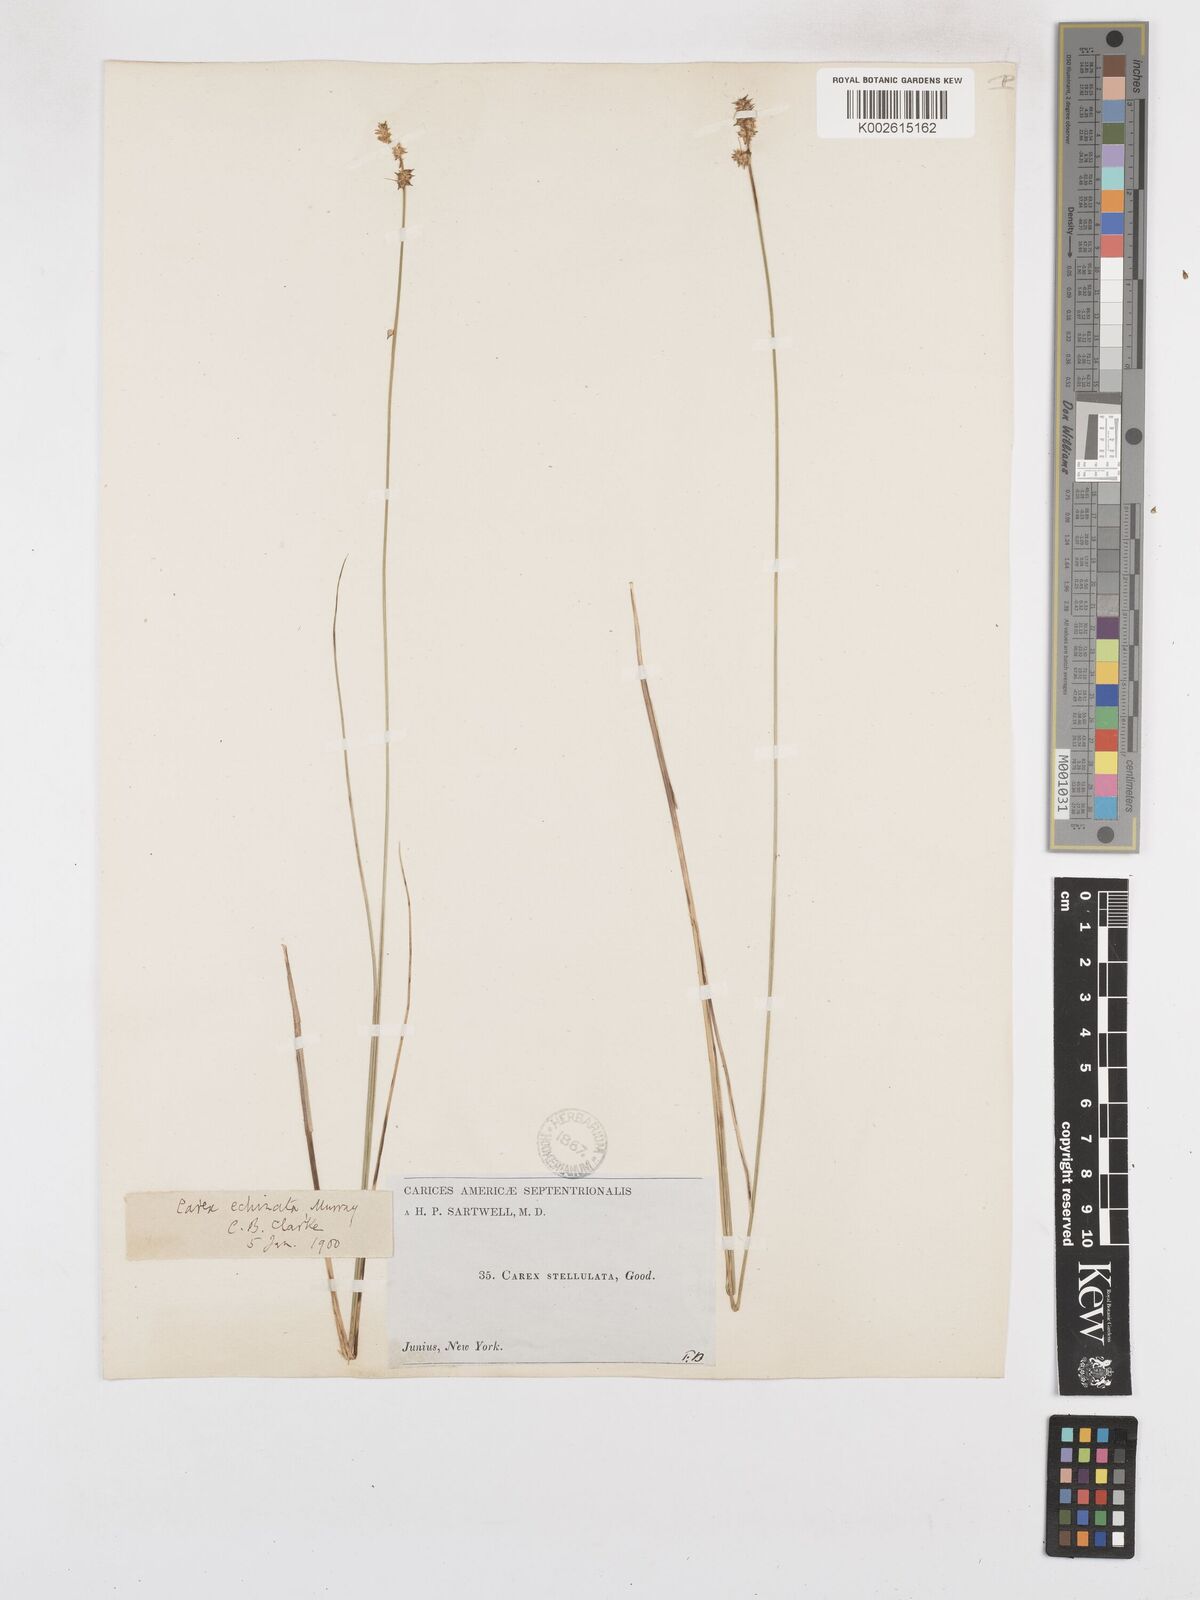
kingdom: Plantae
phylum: Tracheophyta
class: Liliopsida
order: Poales
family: Cyperaceae
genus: Carex
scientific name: Carex echinata
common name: Star sedge
